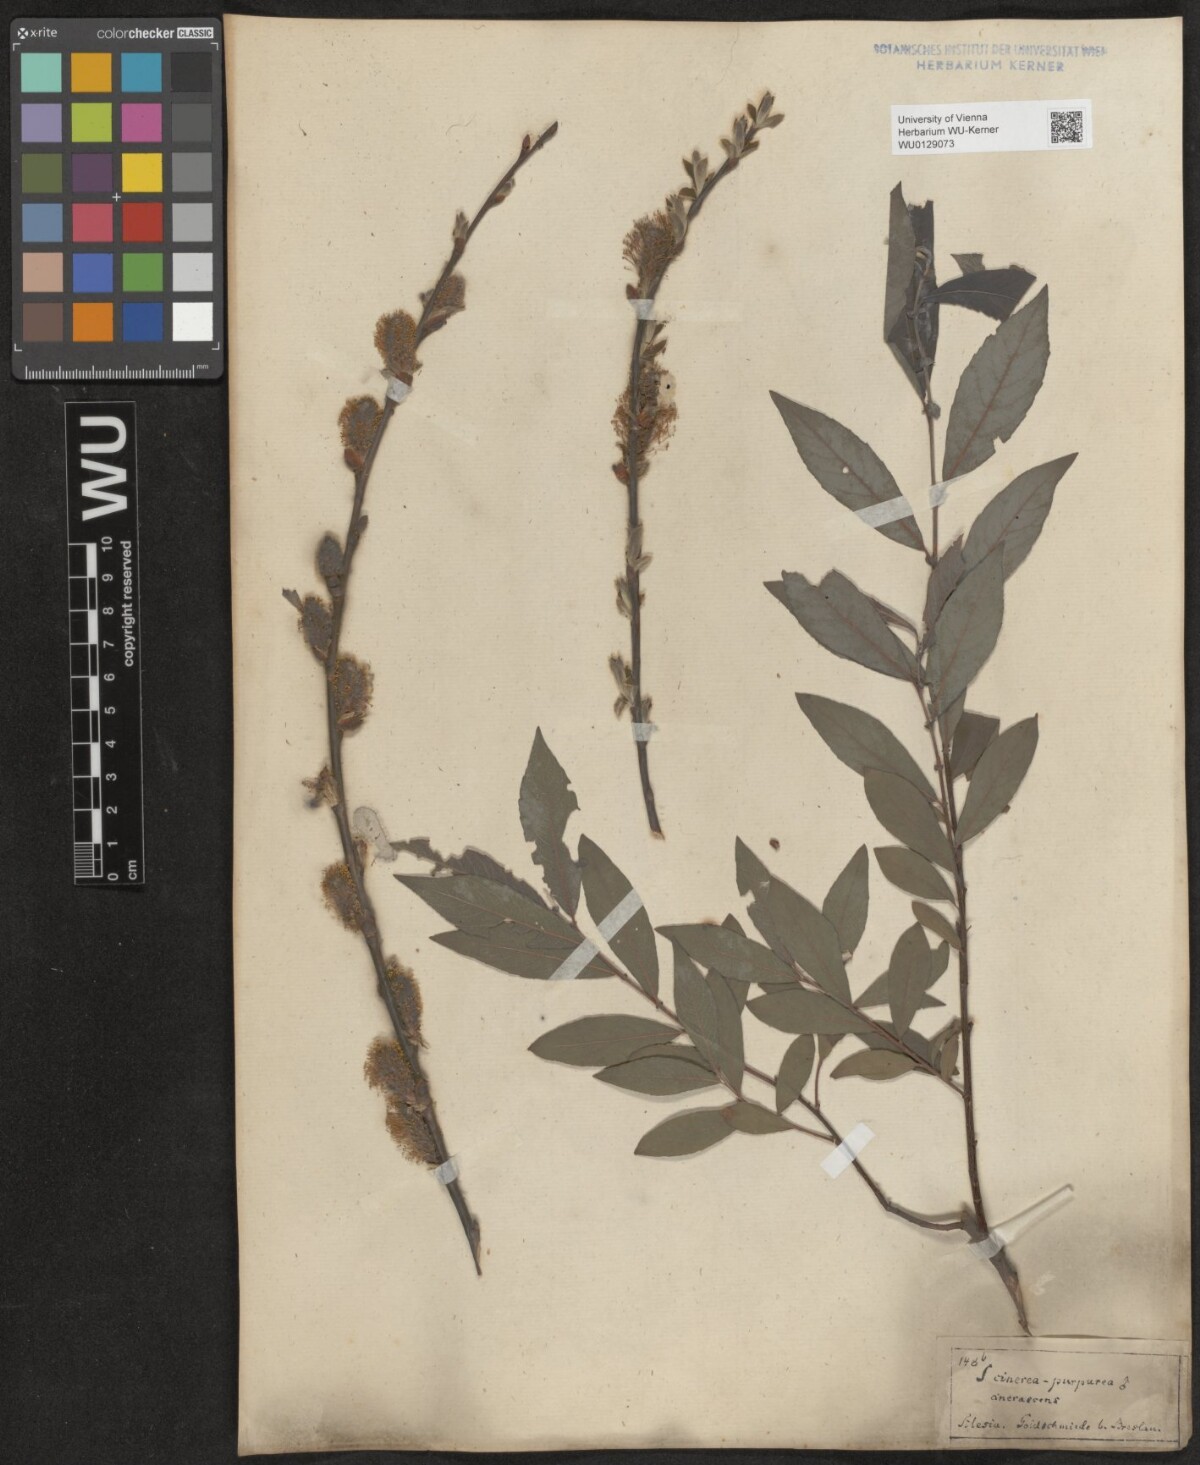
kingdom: Plantae
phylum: Tracheophyta
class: Magnoliopsida
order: Malpighiales
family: Salicaceae
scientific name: Salicaceae
